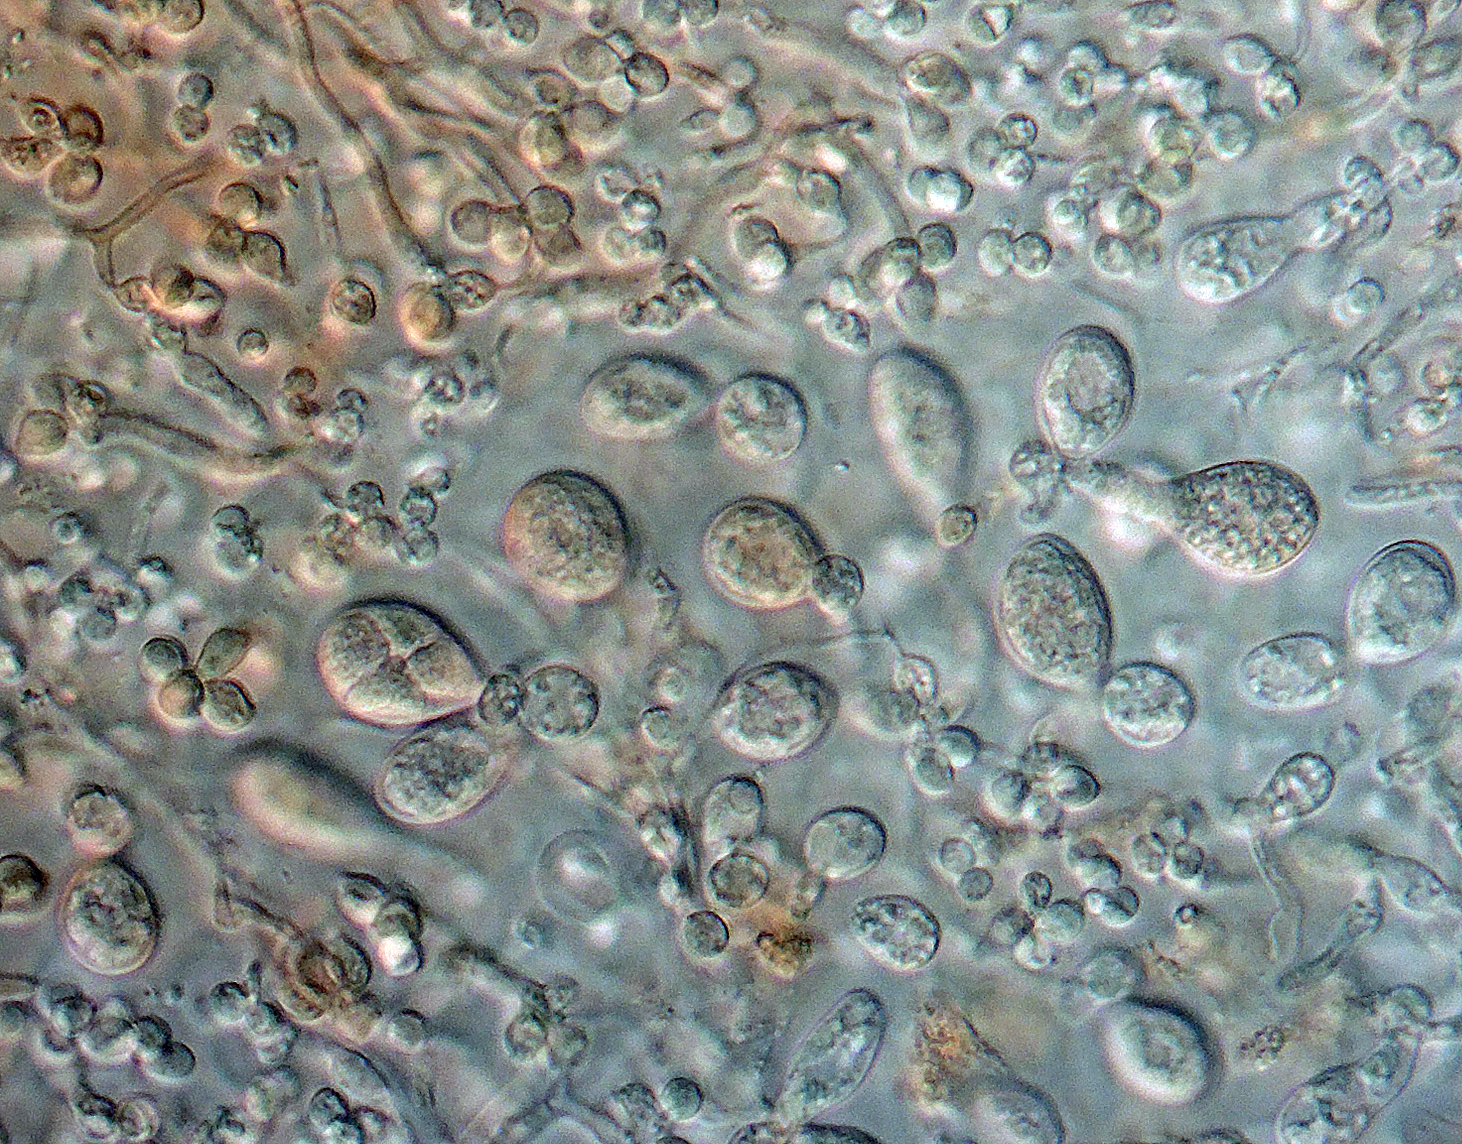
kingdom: Fungi
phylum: Basidiomycota
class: Tremellomycetes
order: Tremellales
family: Tremellaceae
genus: Tremella
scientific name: Tremella versicolor
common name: voksskind-bævresvamp
